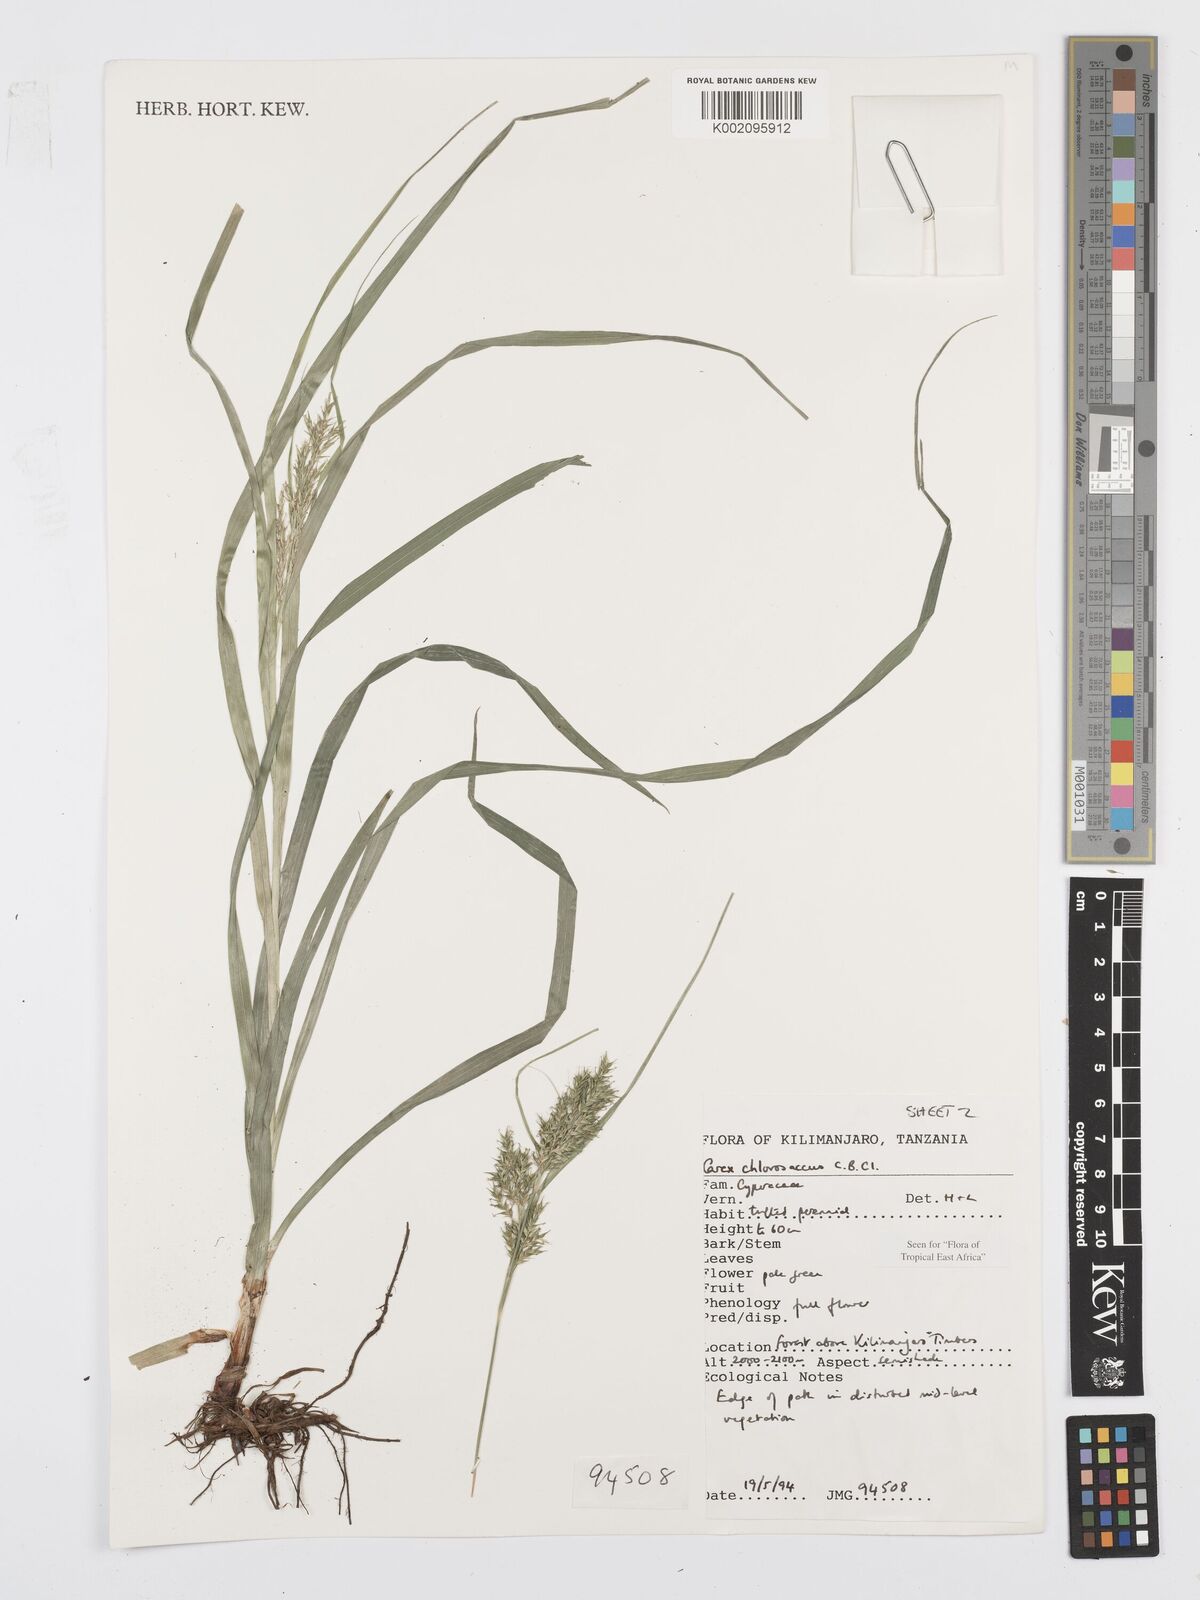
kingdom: Plantae
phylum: Tracheophyta
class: Liliopsida
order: Poales
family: Cyperaceae
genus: Carex
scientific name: Carex chlorosaccus
